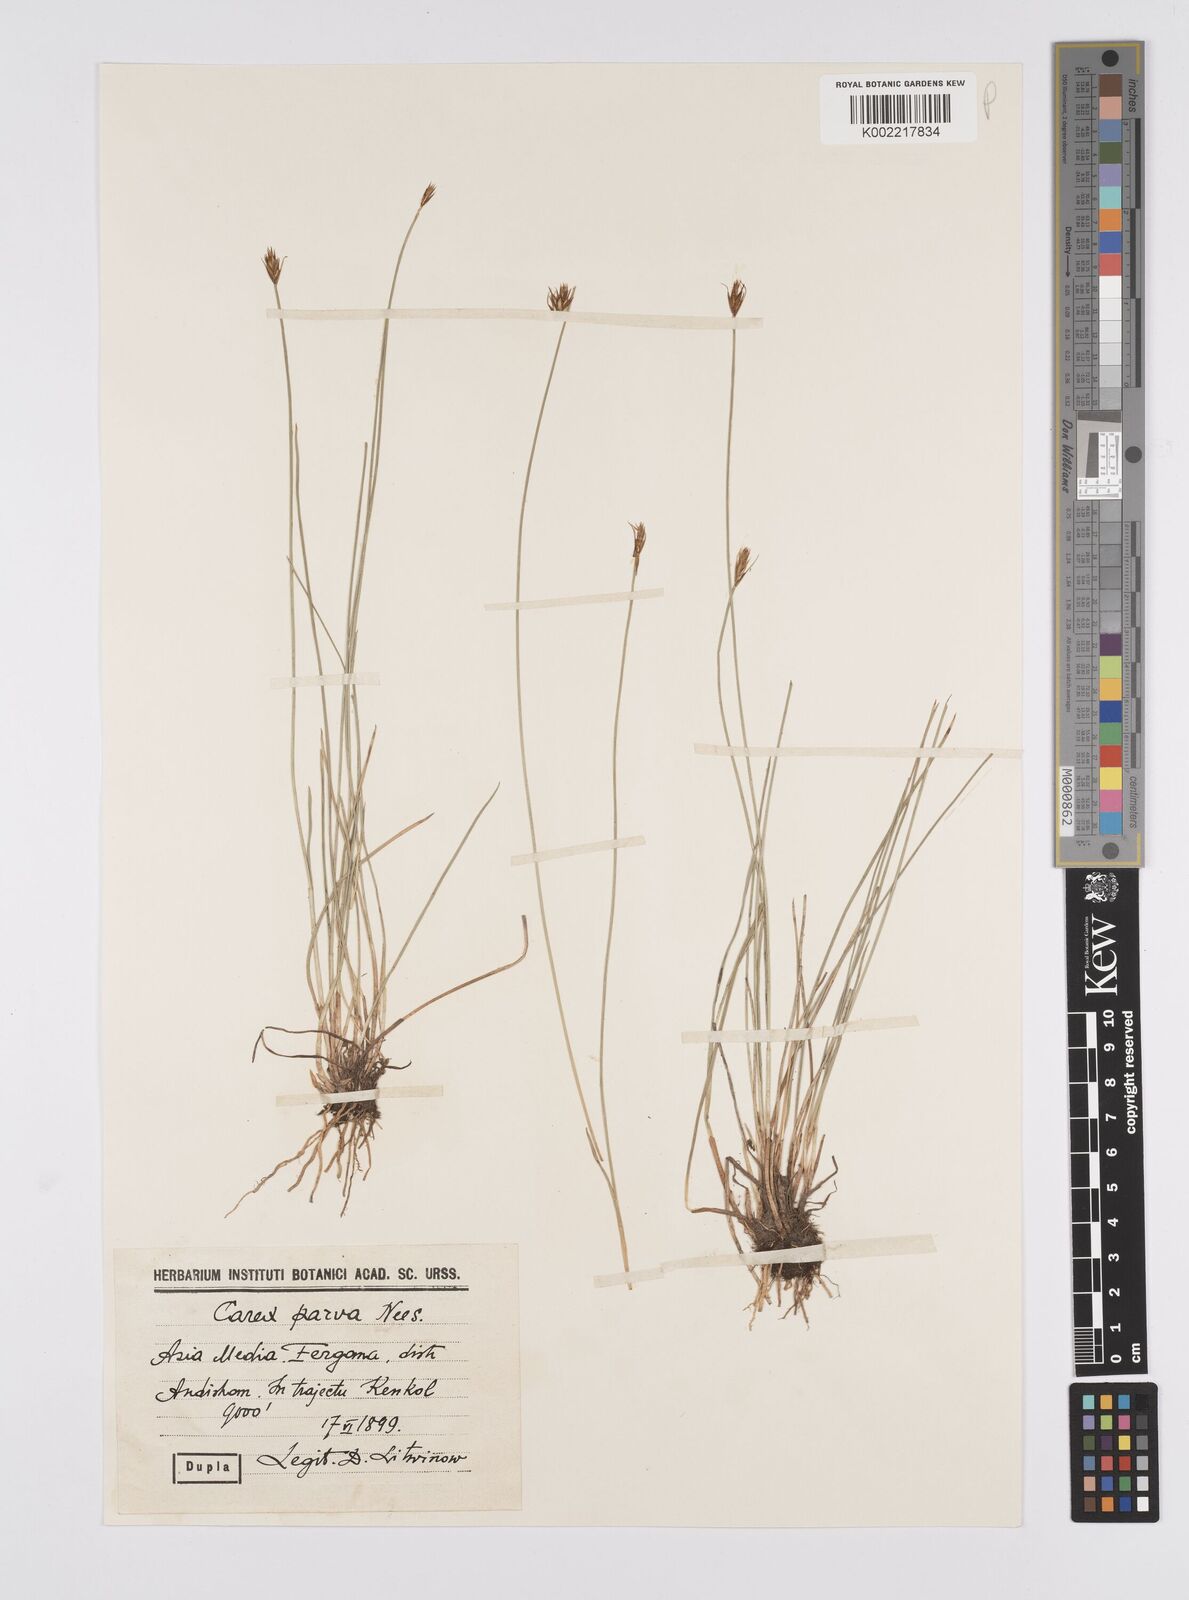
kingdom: Plantae
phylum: Tracheophyta
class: Liliopsida
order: Poales
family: Cyperaceae
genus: Carex
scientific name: Carex parva
